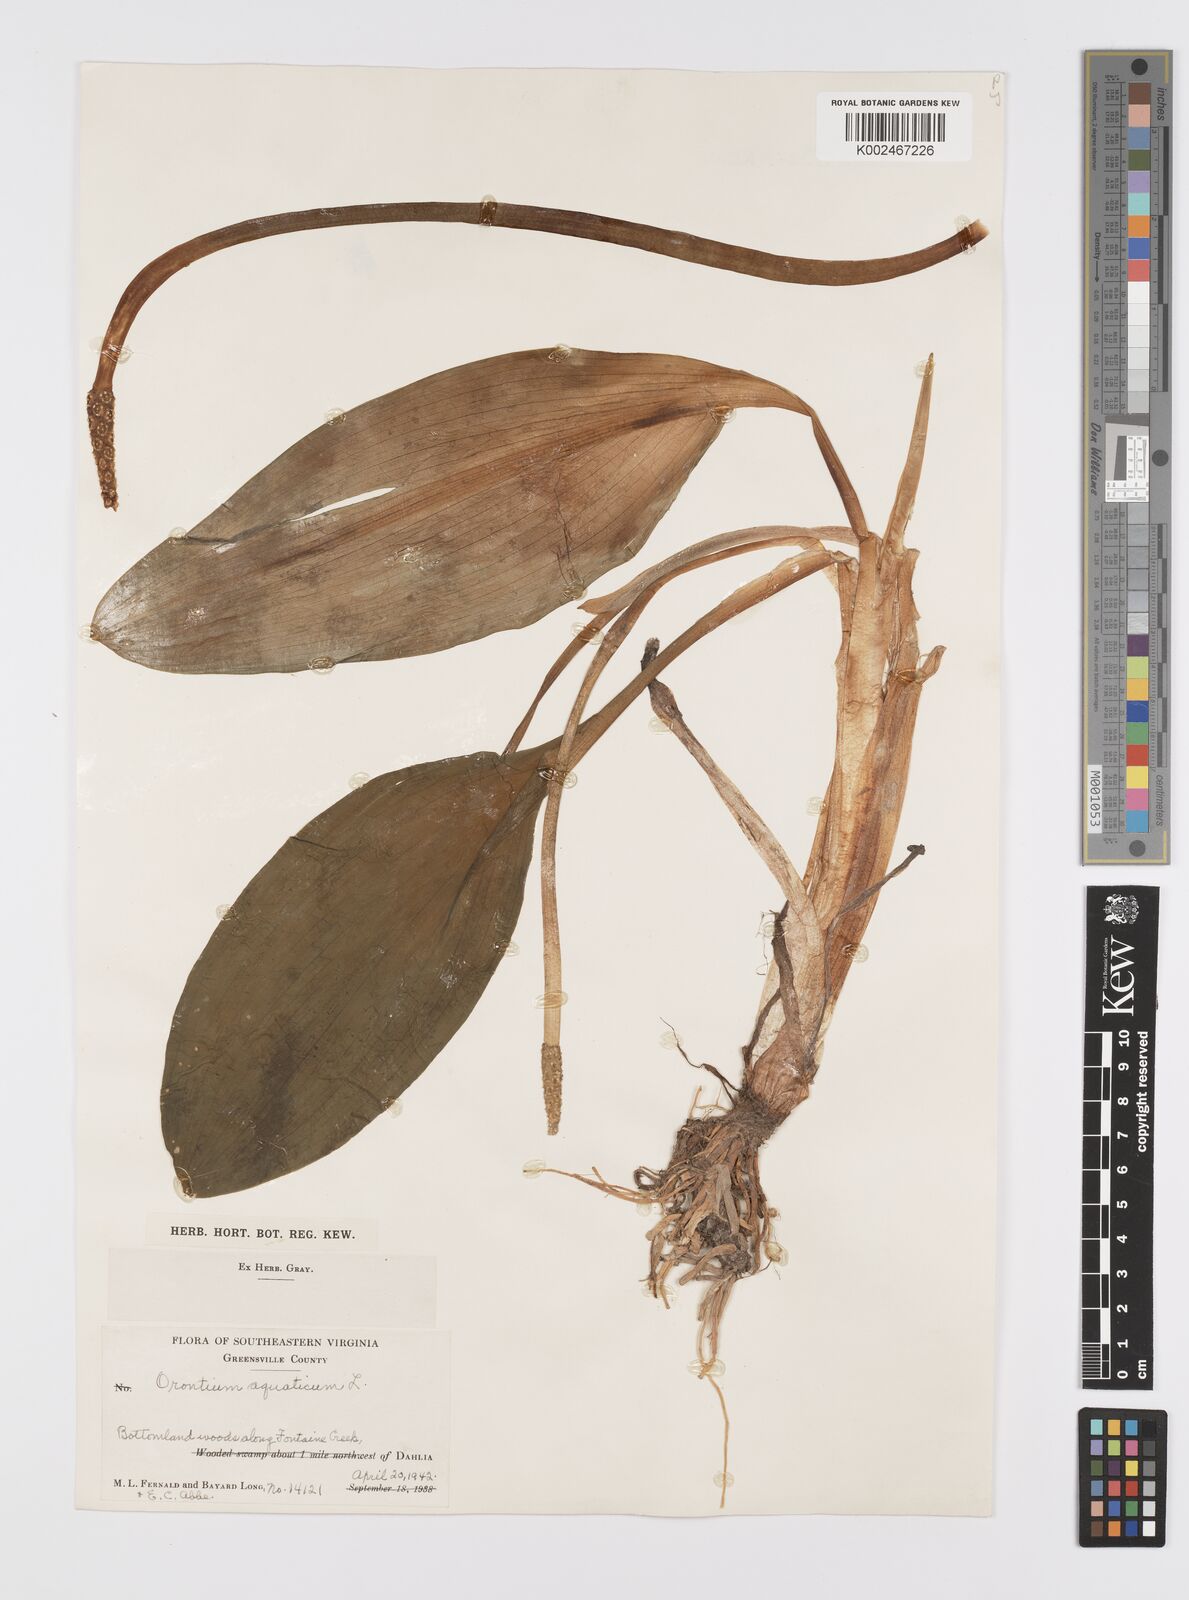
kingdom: Plantae
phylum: Tracheophyta
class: Liliopsida
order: Alismatales
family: Araceae
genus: Orontium
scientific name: Orontium aquaticum
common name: Golden-club
